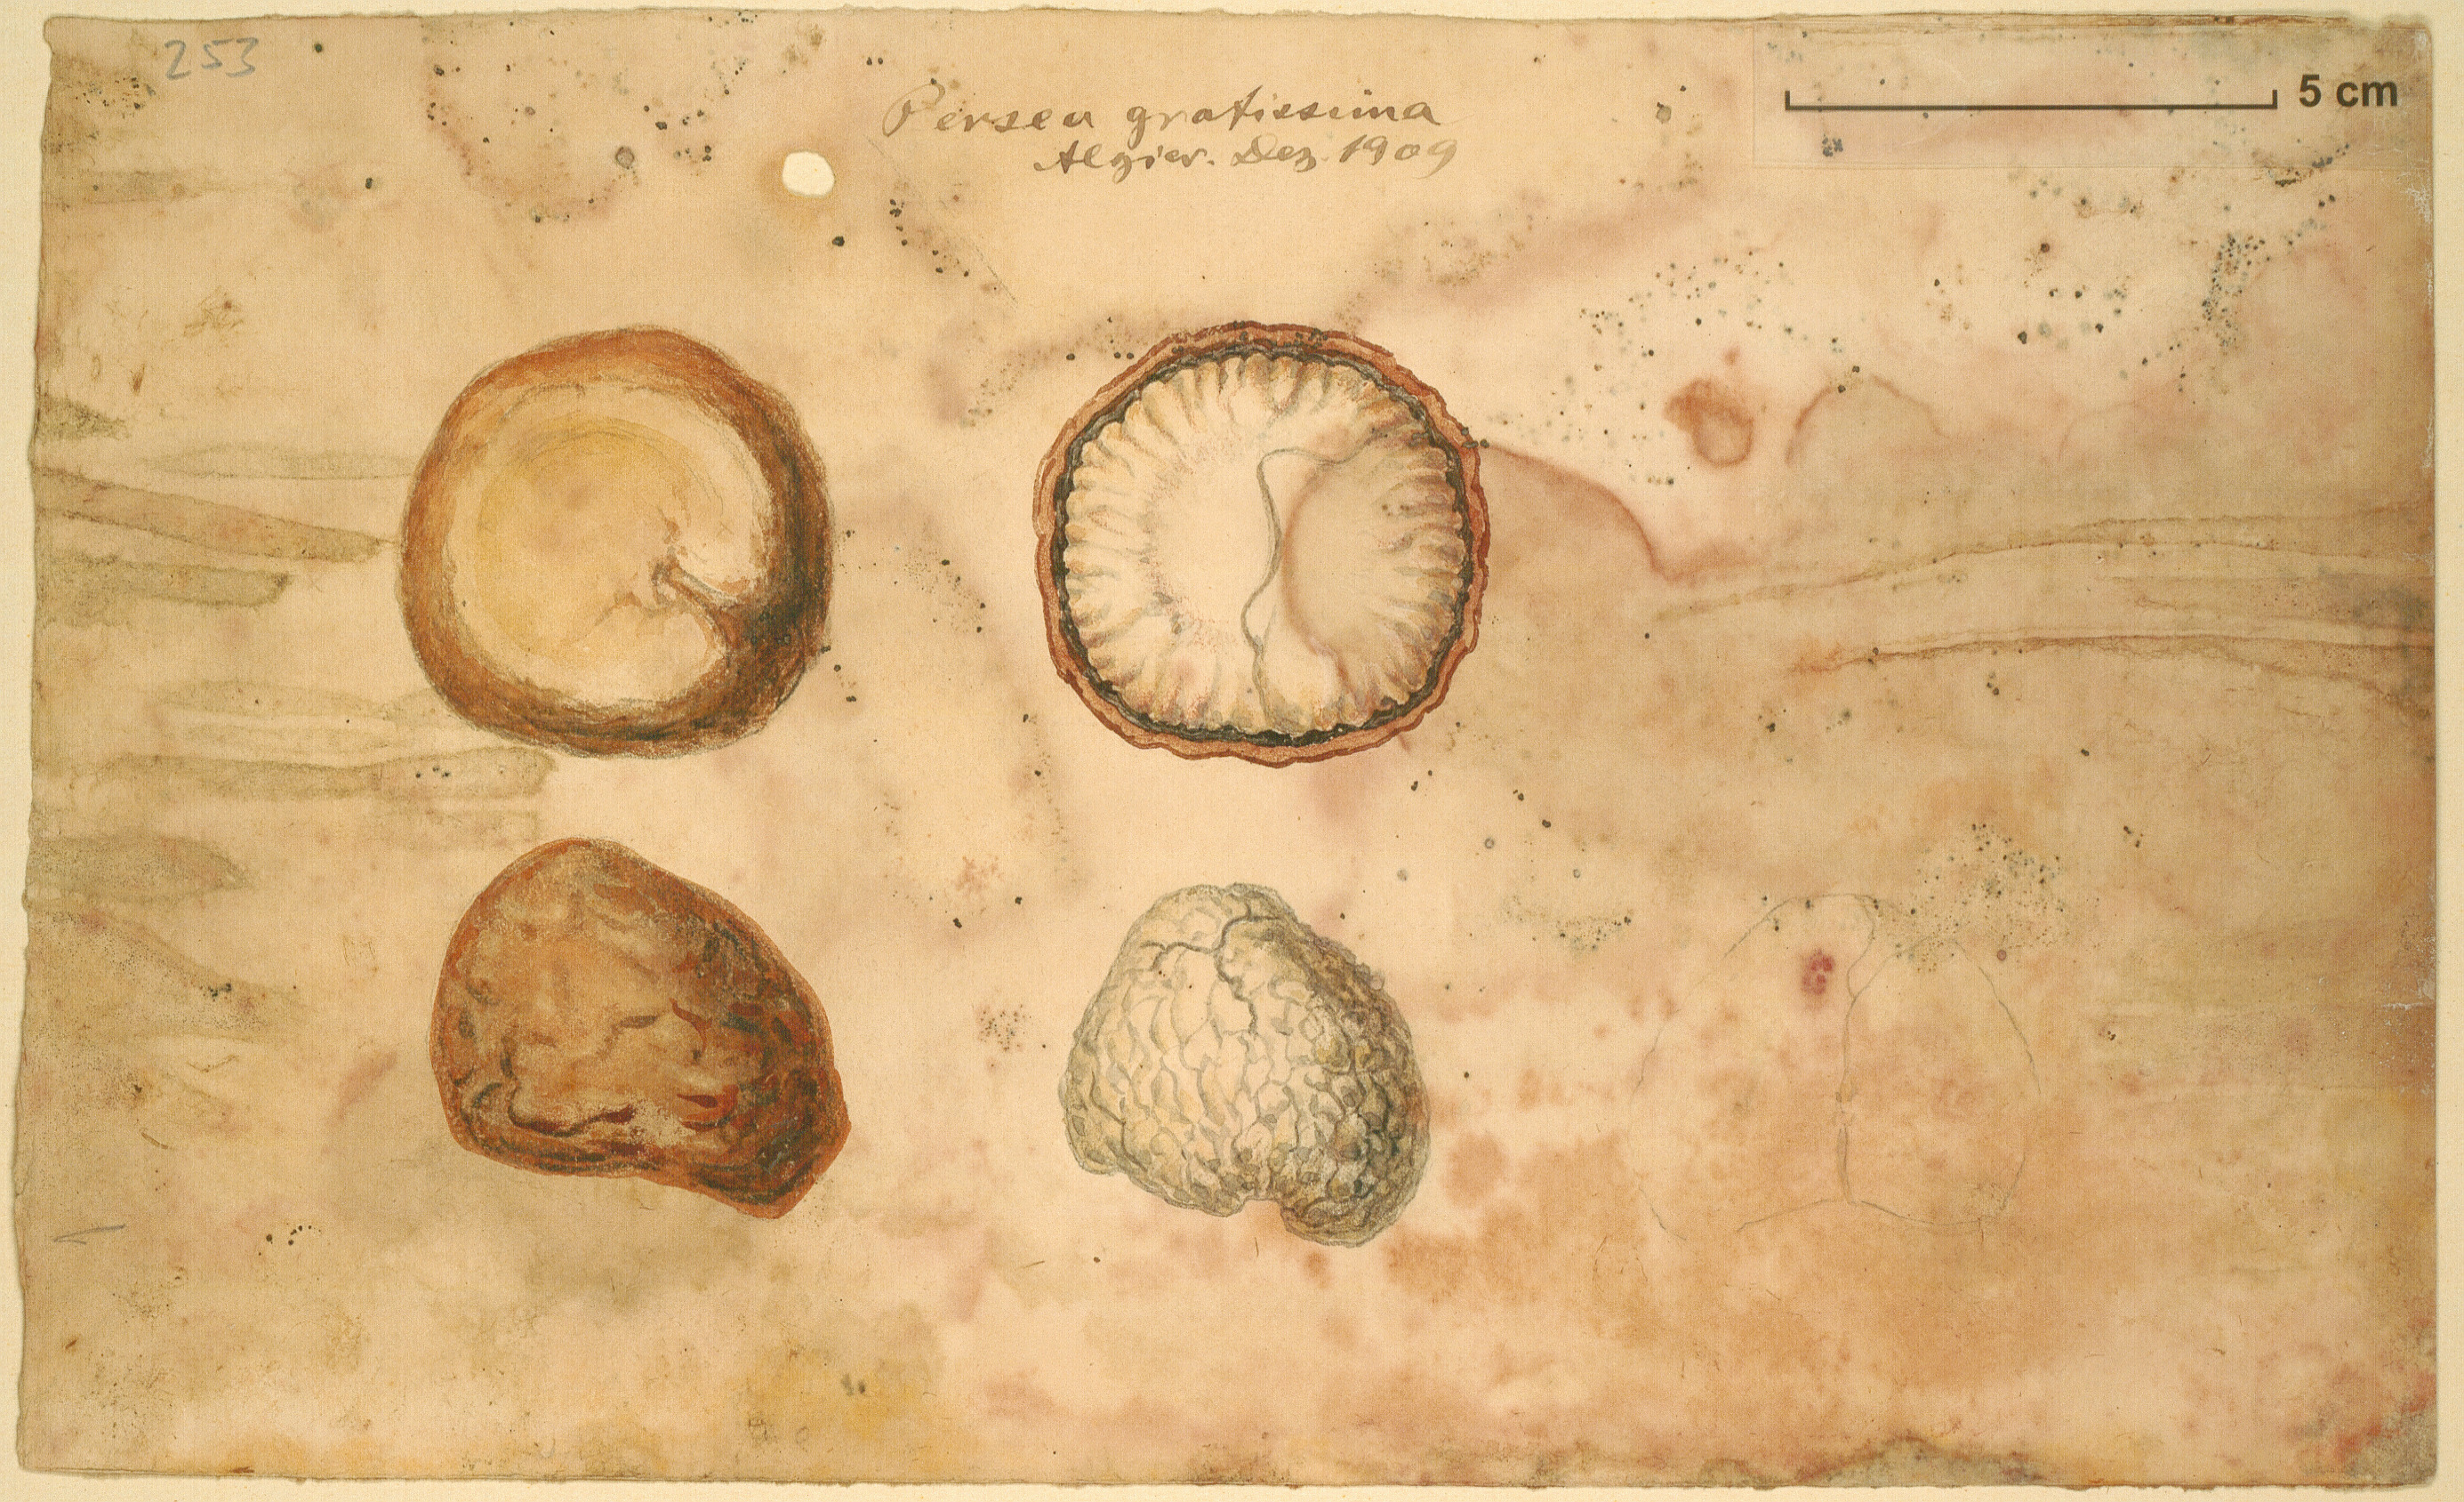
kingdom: Plantae
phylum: Tracheophyta
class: Magnoliopsida
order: Laurales
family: Lauraceae
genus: Persea
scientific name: Persea americana
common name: Avocado
